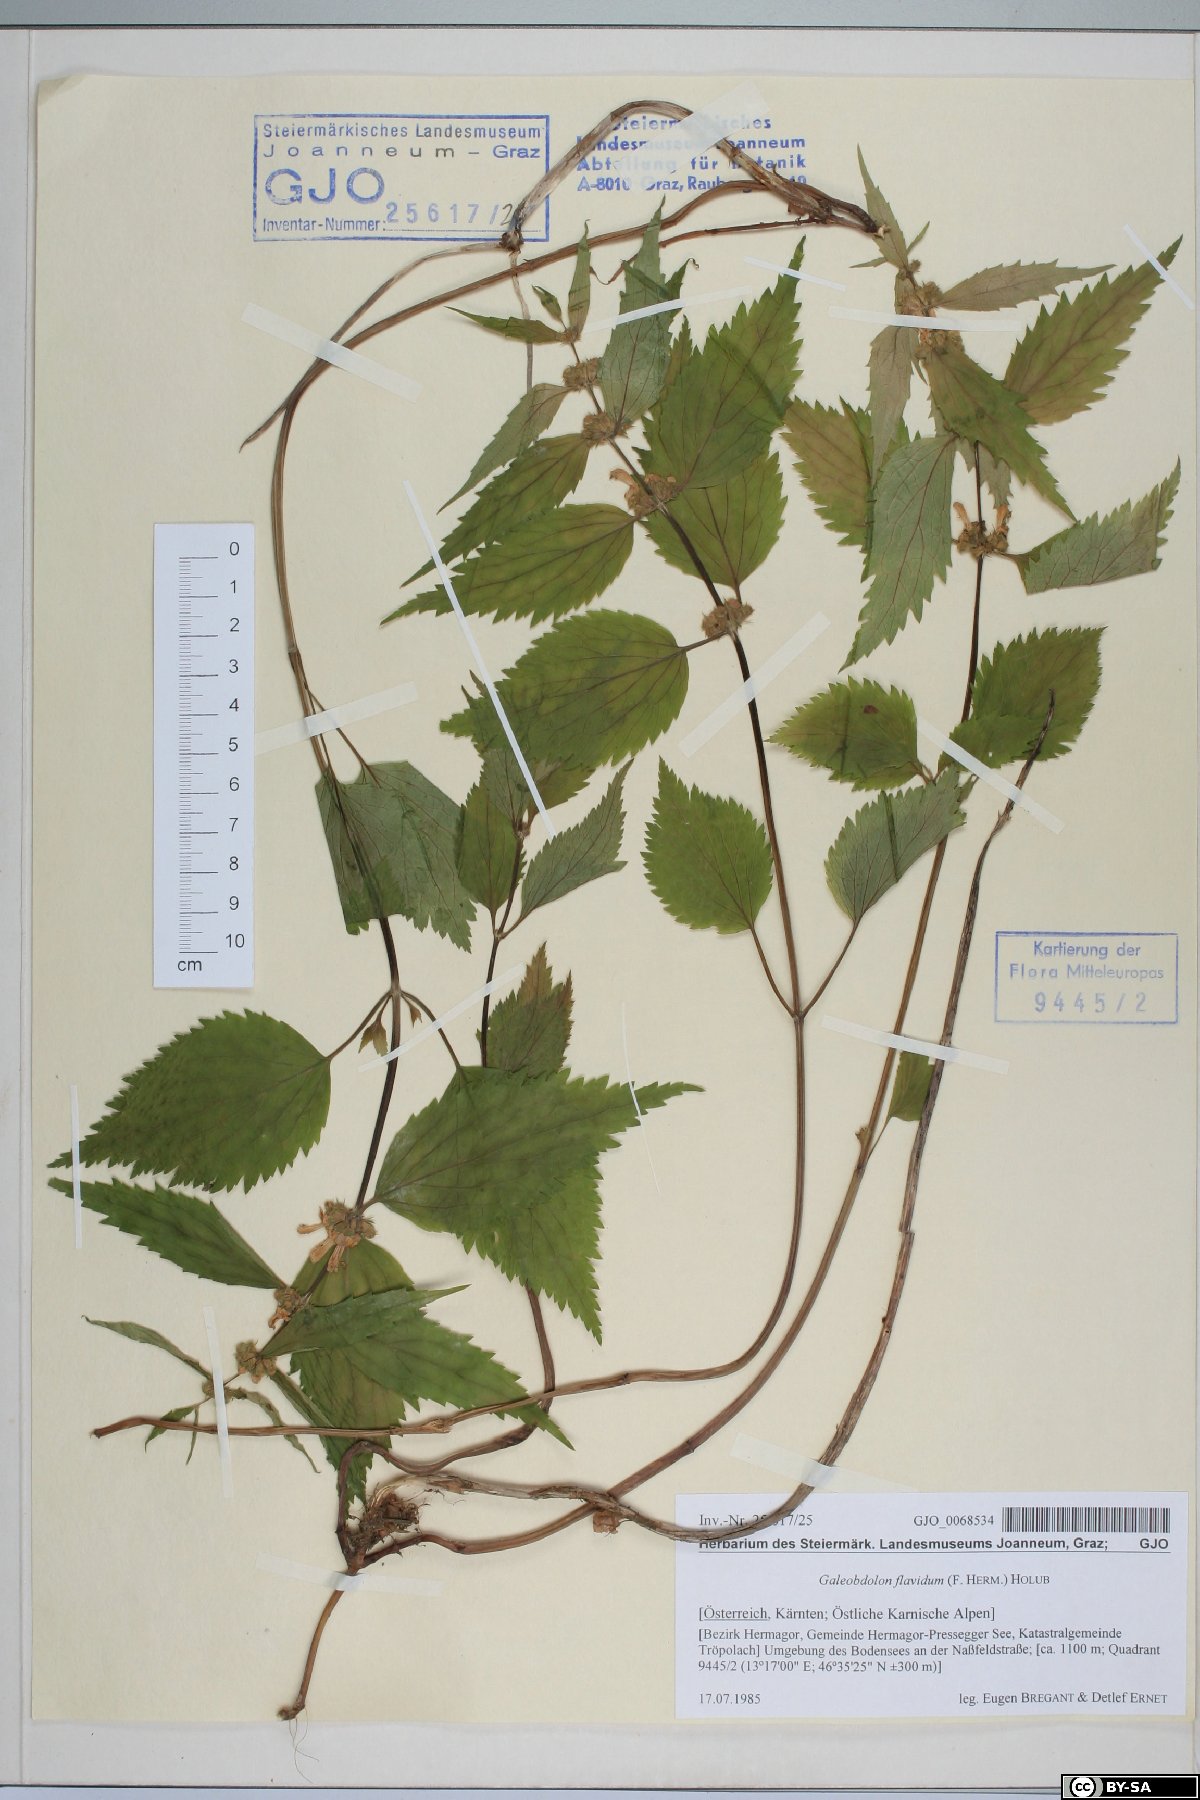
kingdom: Plantae
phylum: Tracheophyta
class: Magnoliopsida
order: Lamiales
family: Lamiaceae
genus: Lamium
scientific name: Lamium galeobdolon
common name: Yellow archangel
